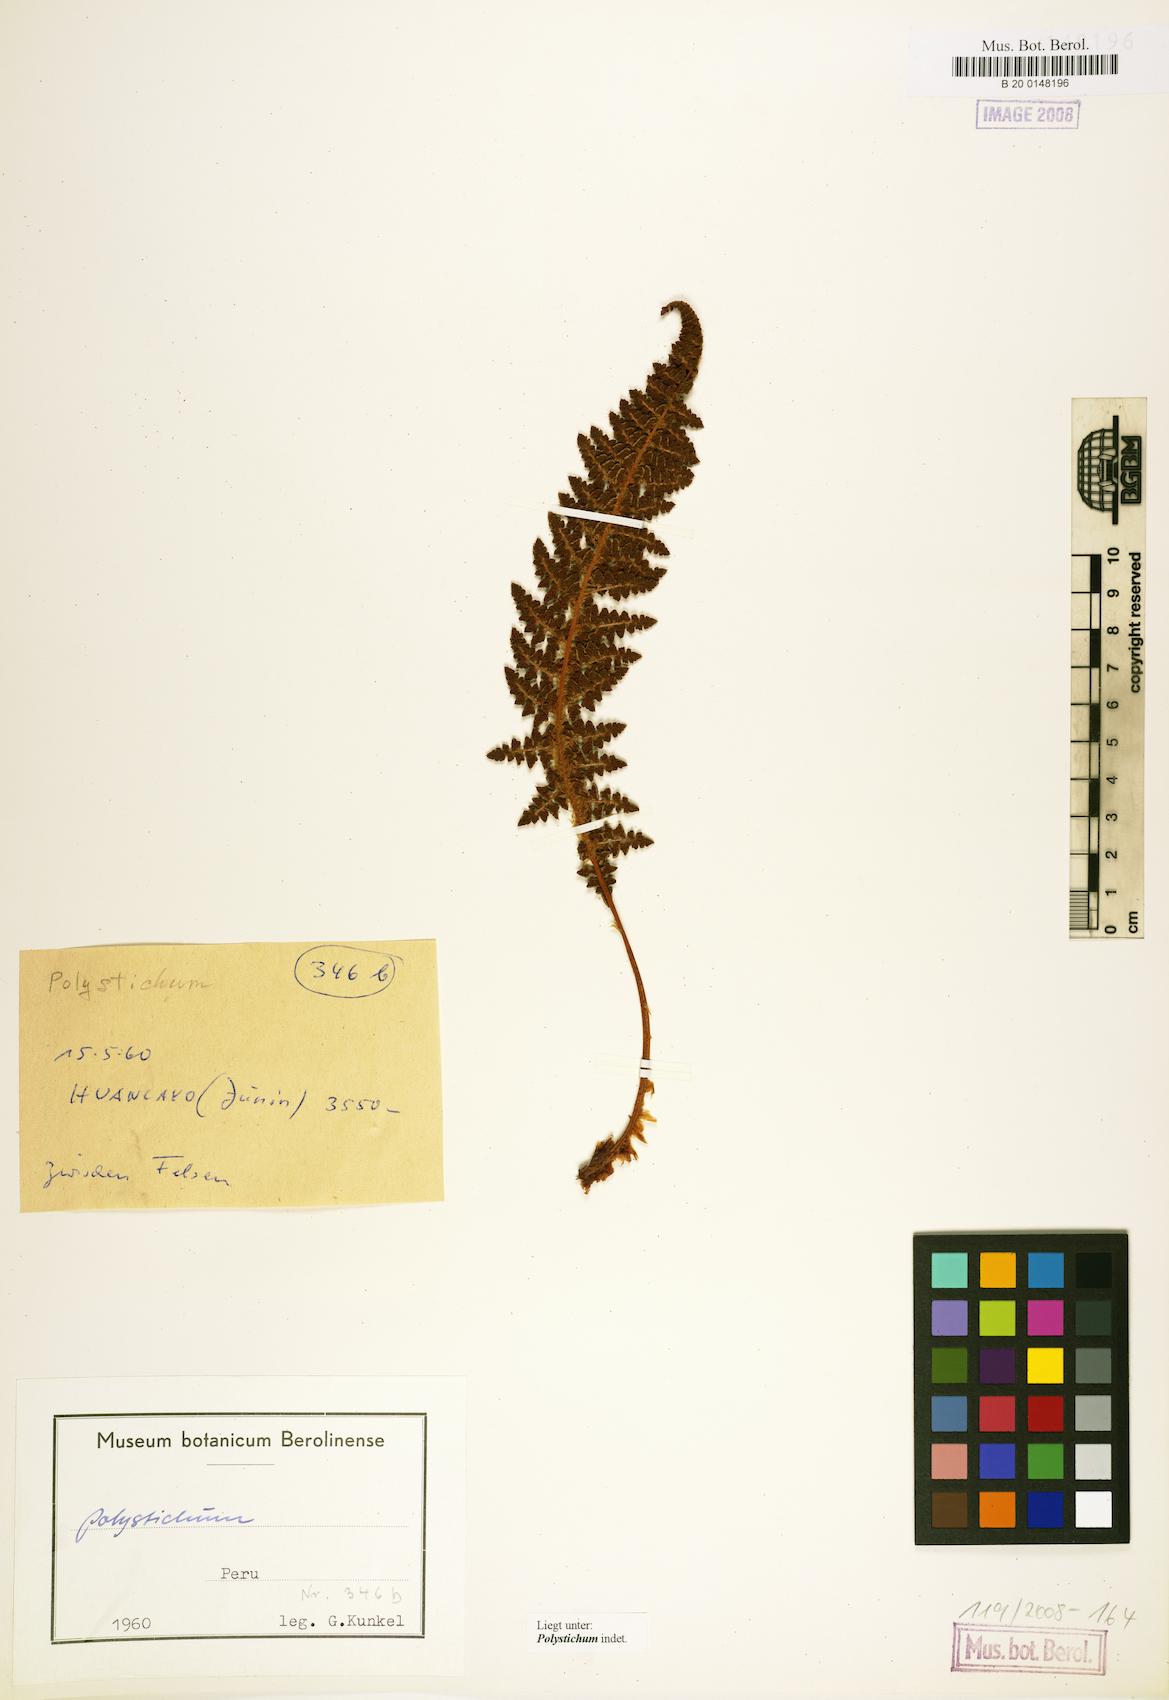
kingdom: Plantae
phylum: Tracheophyta
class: Polypodiopsida
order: Polypodiales
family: Dryopteridaceae
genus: Polystichum
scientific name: Polystichum
